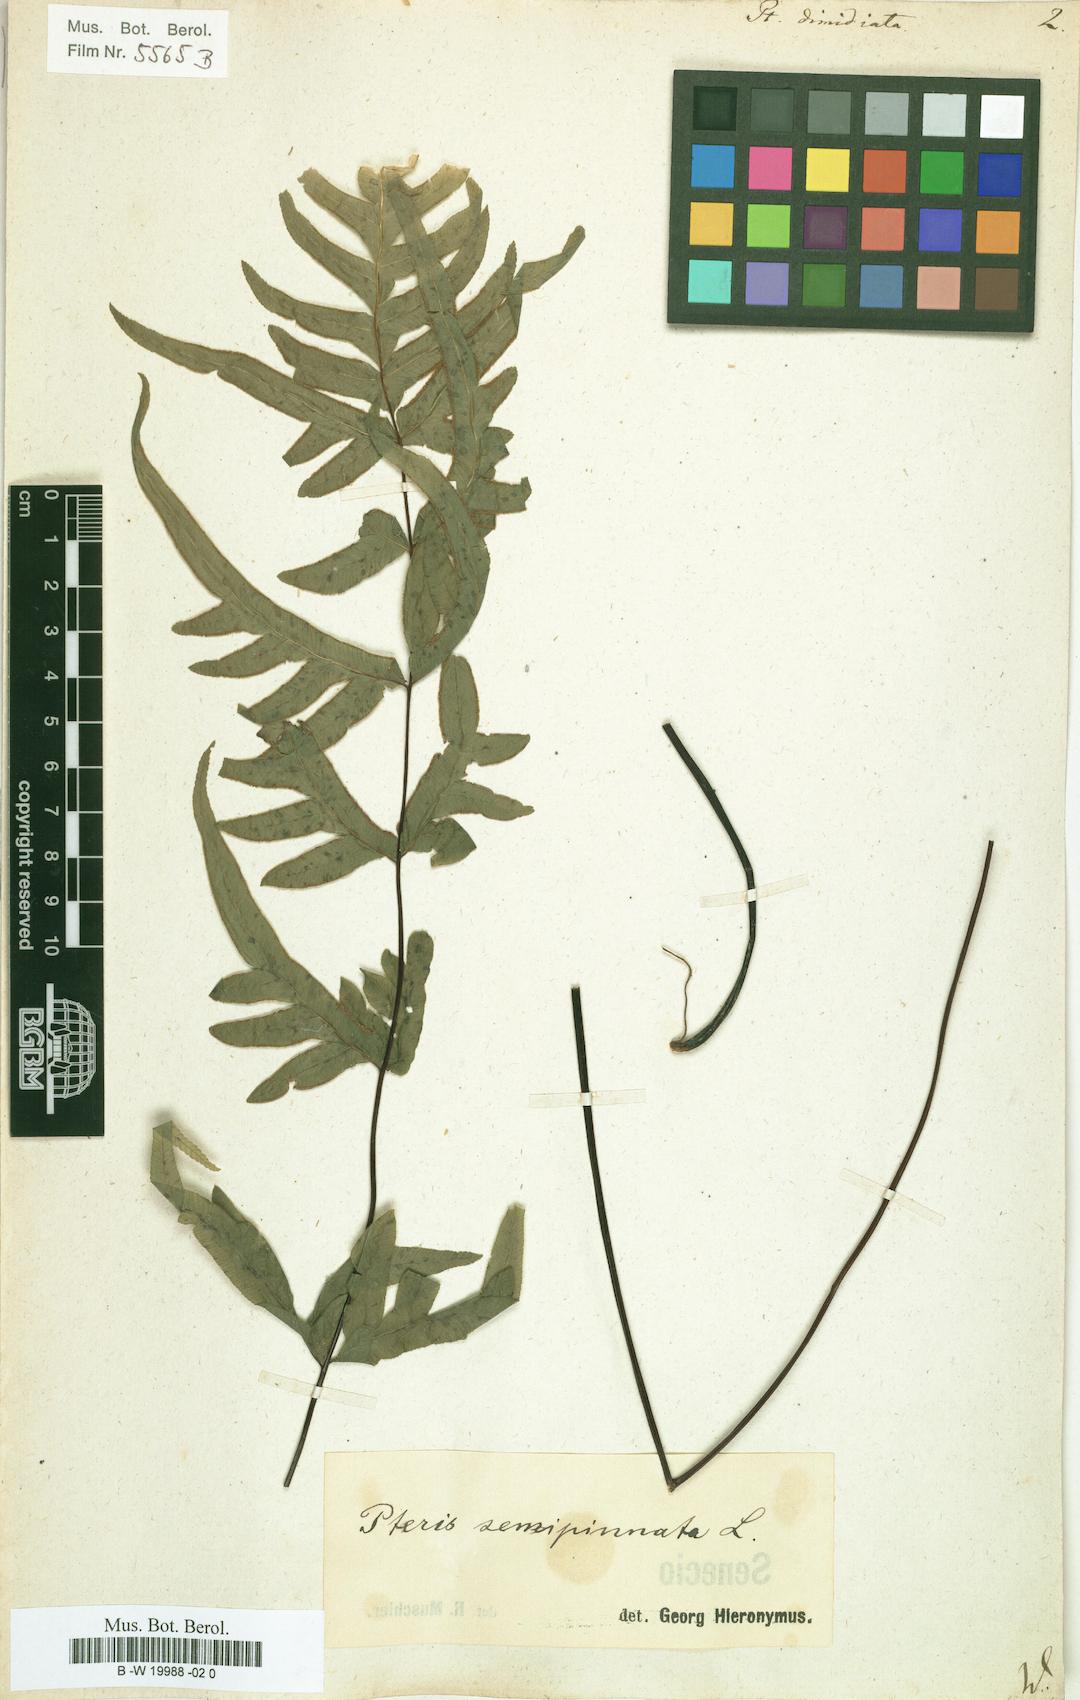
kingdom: Plantae
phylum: Tracheophyta
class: Polypodiopsida
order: Polypodiales
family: Pteridaceae
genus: Pteris
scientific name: Pteris semipinnata
